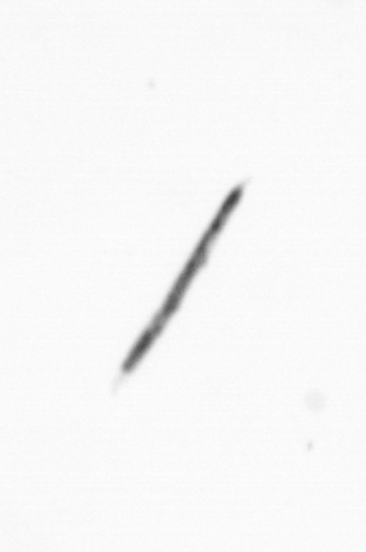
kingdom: Chromista
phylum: Ochrophyta
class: Bacillariophyceae
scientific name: Bacillariophyceae
